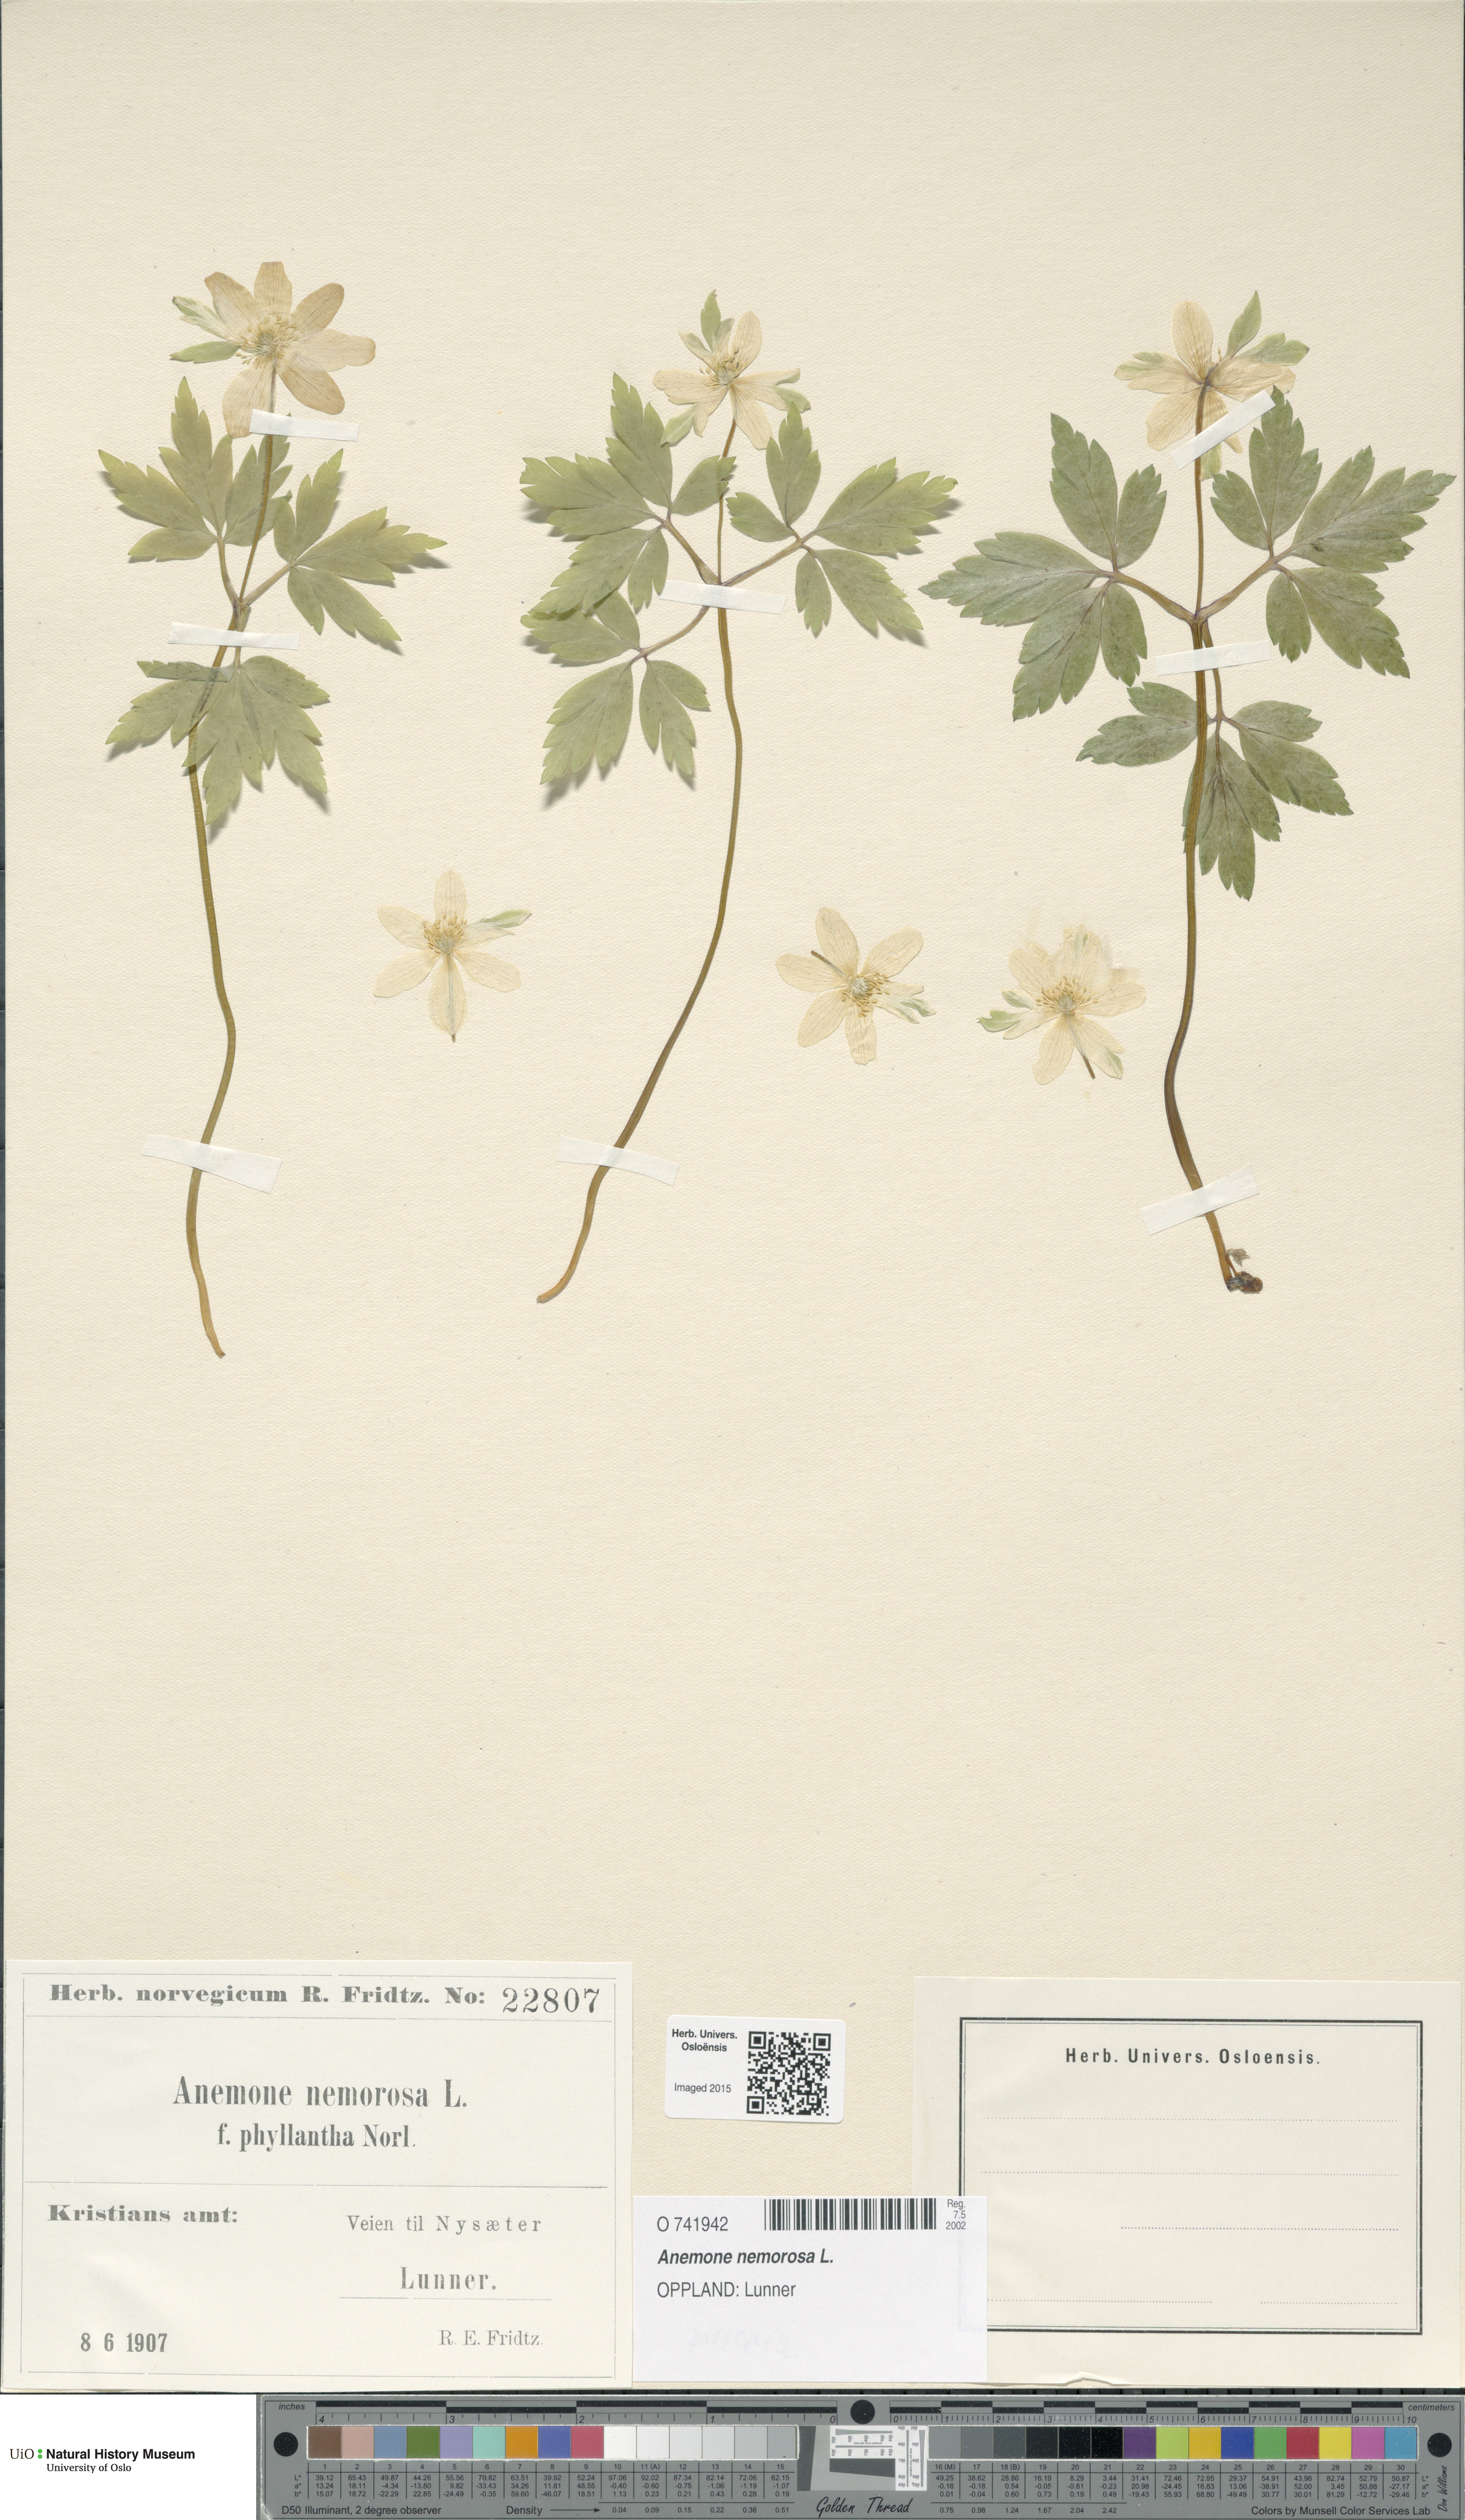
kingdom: Plantae
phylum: Tracheophyta
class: Magnoliopsida
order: Ranunculales
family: Ranunculaceae
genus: Anemone
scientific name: Anemone nemorosa
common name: Wood anemone
